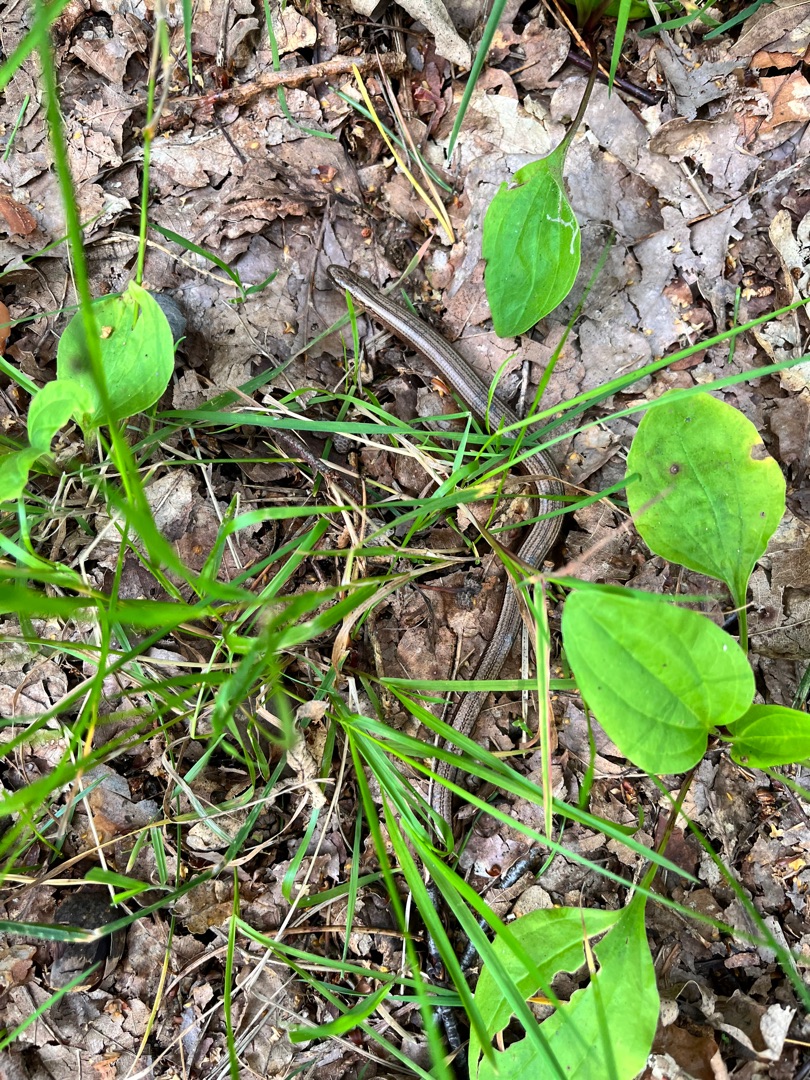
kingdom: Animalia
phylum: Chordata
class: Squamata
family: Anguidae
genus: Anguis
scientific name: Anguis fragilis
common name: Stålorm
